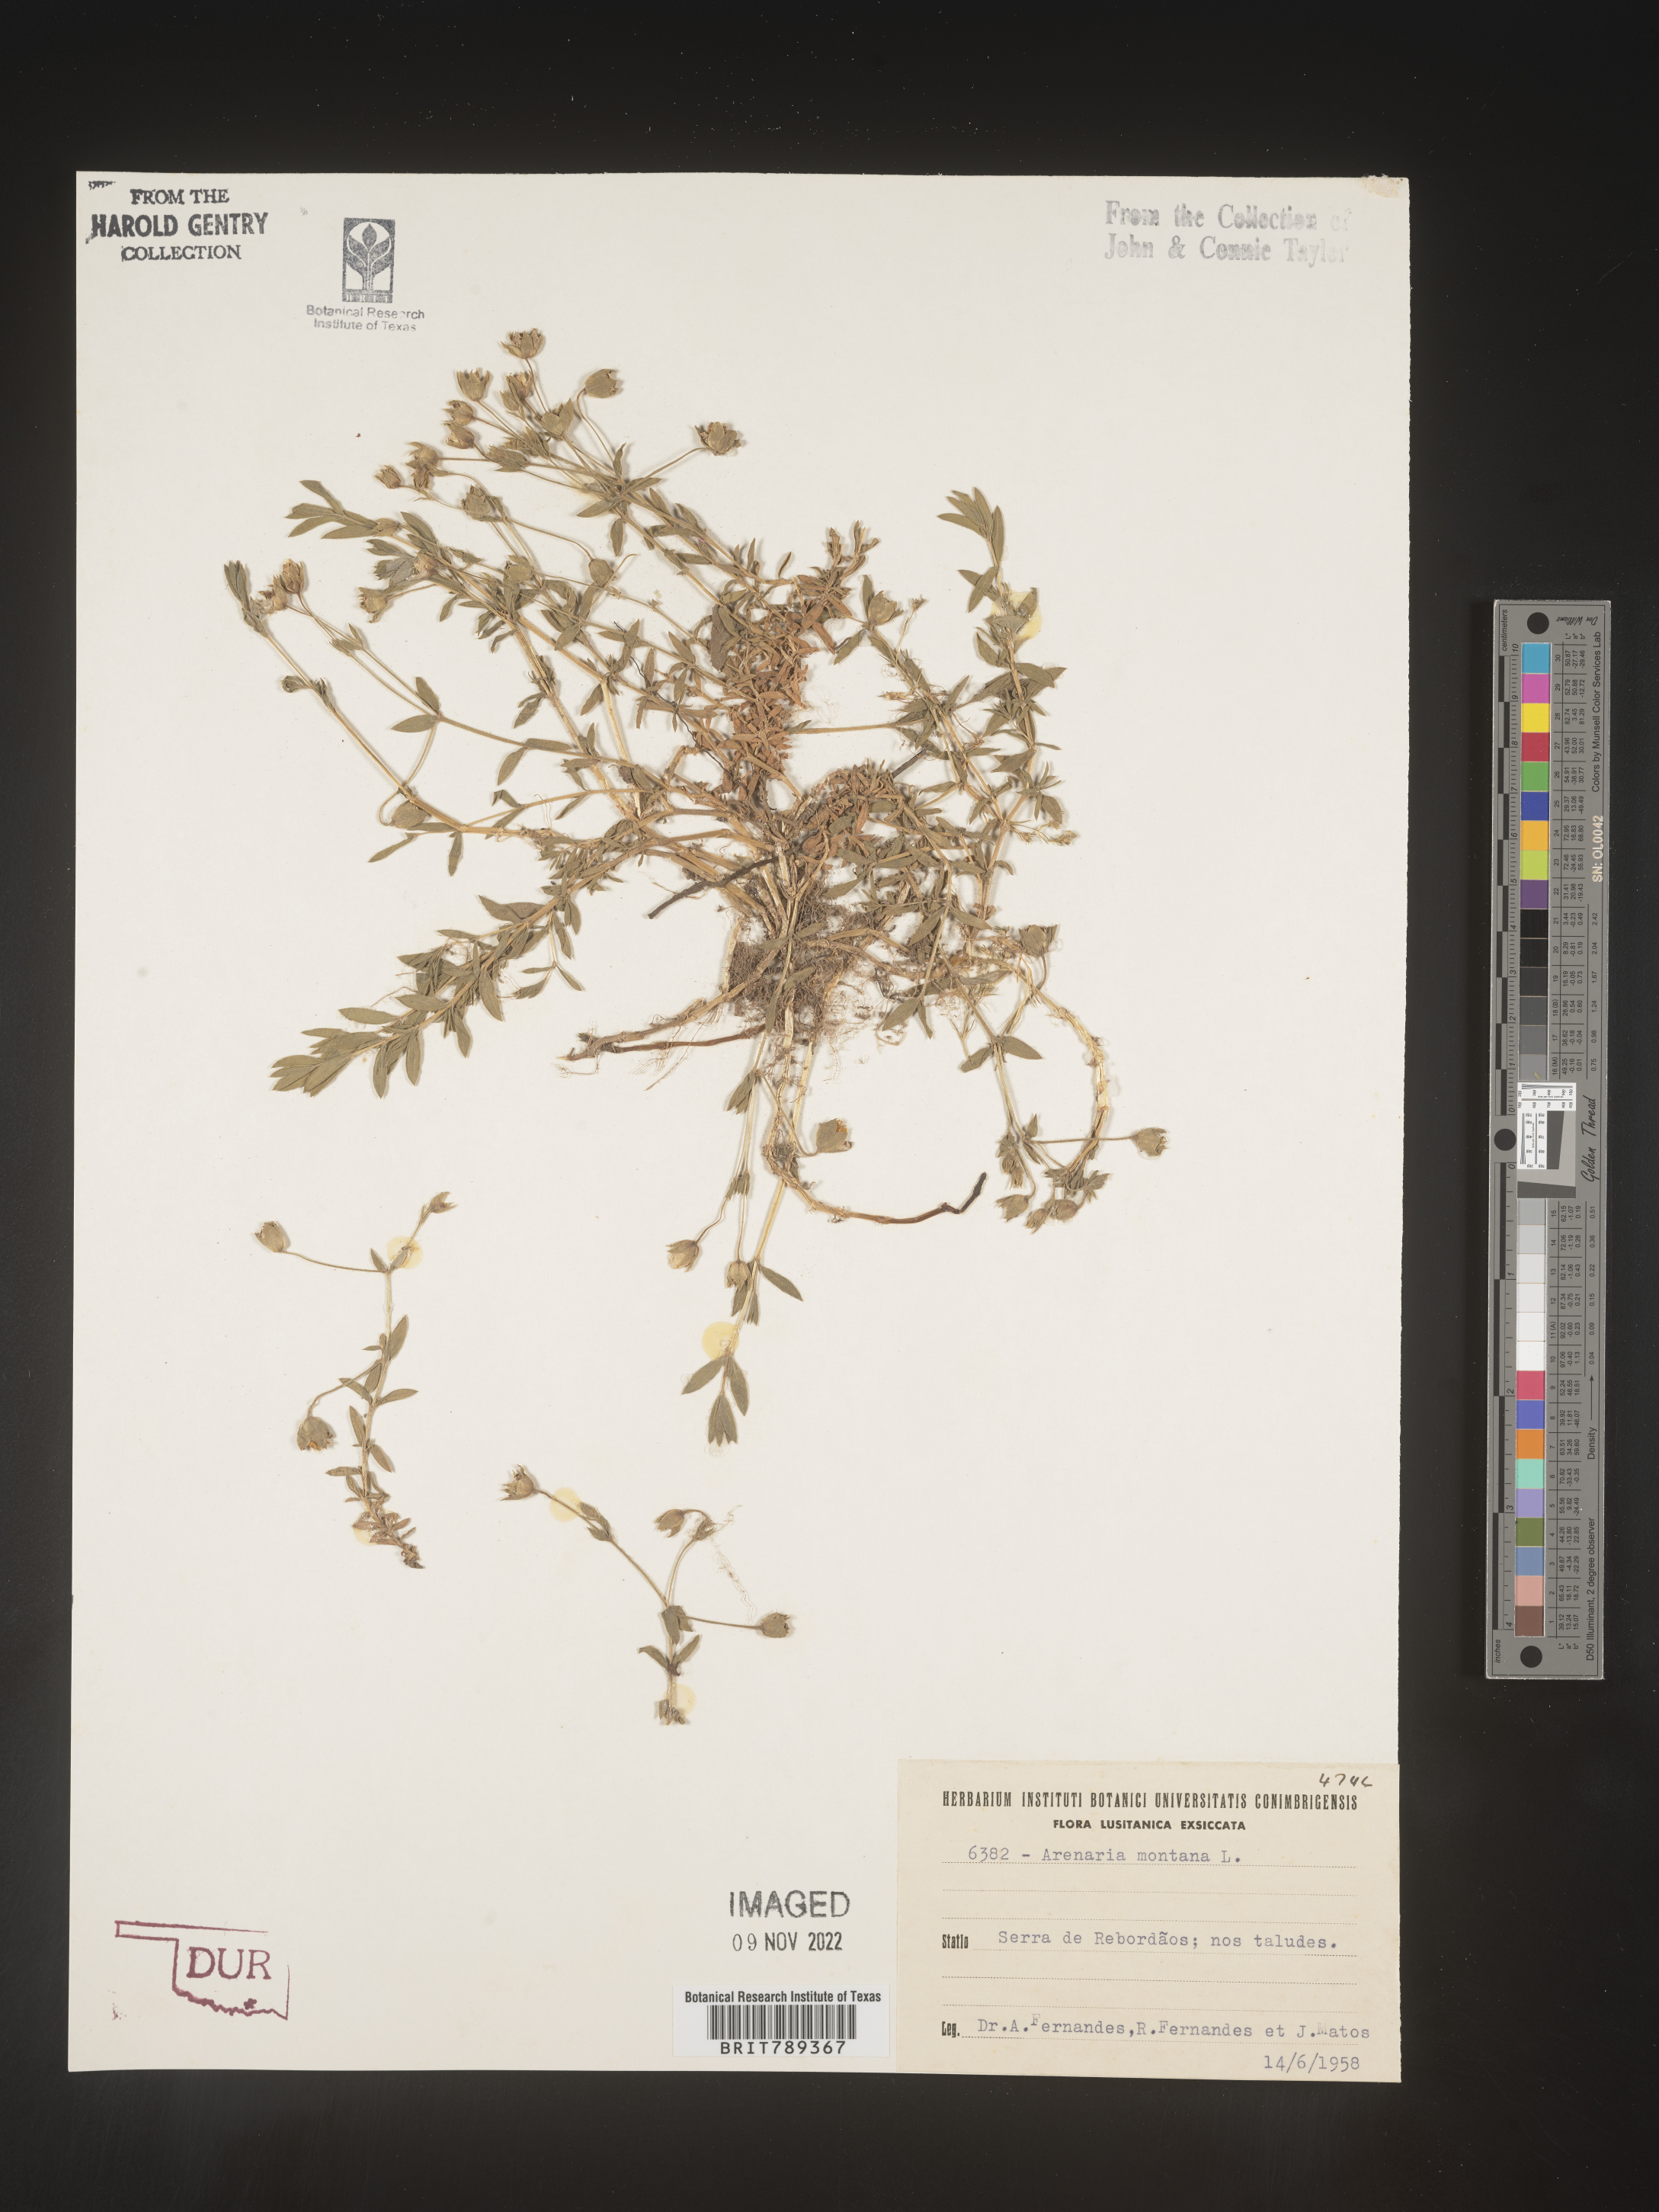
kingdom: Plantae
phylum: Tracheophyta
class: Magnoliopsida
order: Caryophyllales
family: Caryophyllaceae
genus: Arenaria
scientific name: Arenaria
